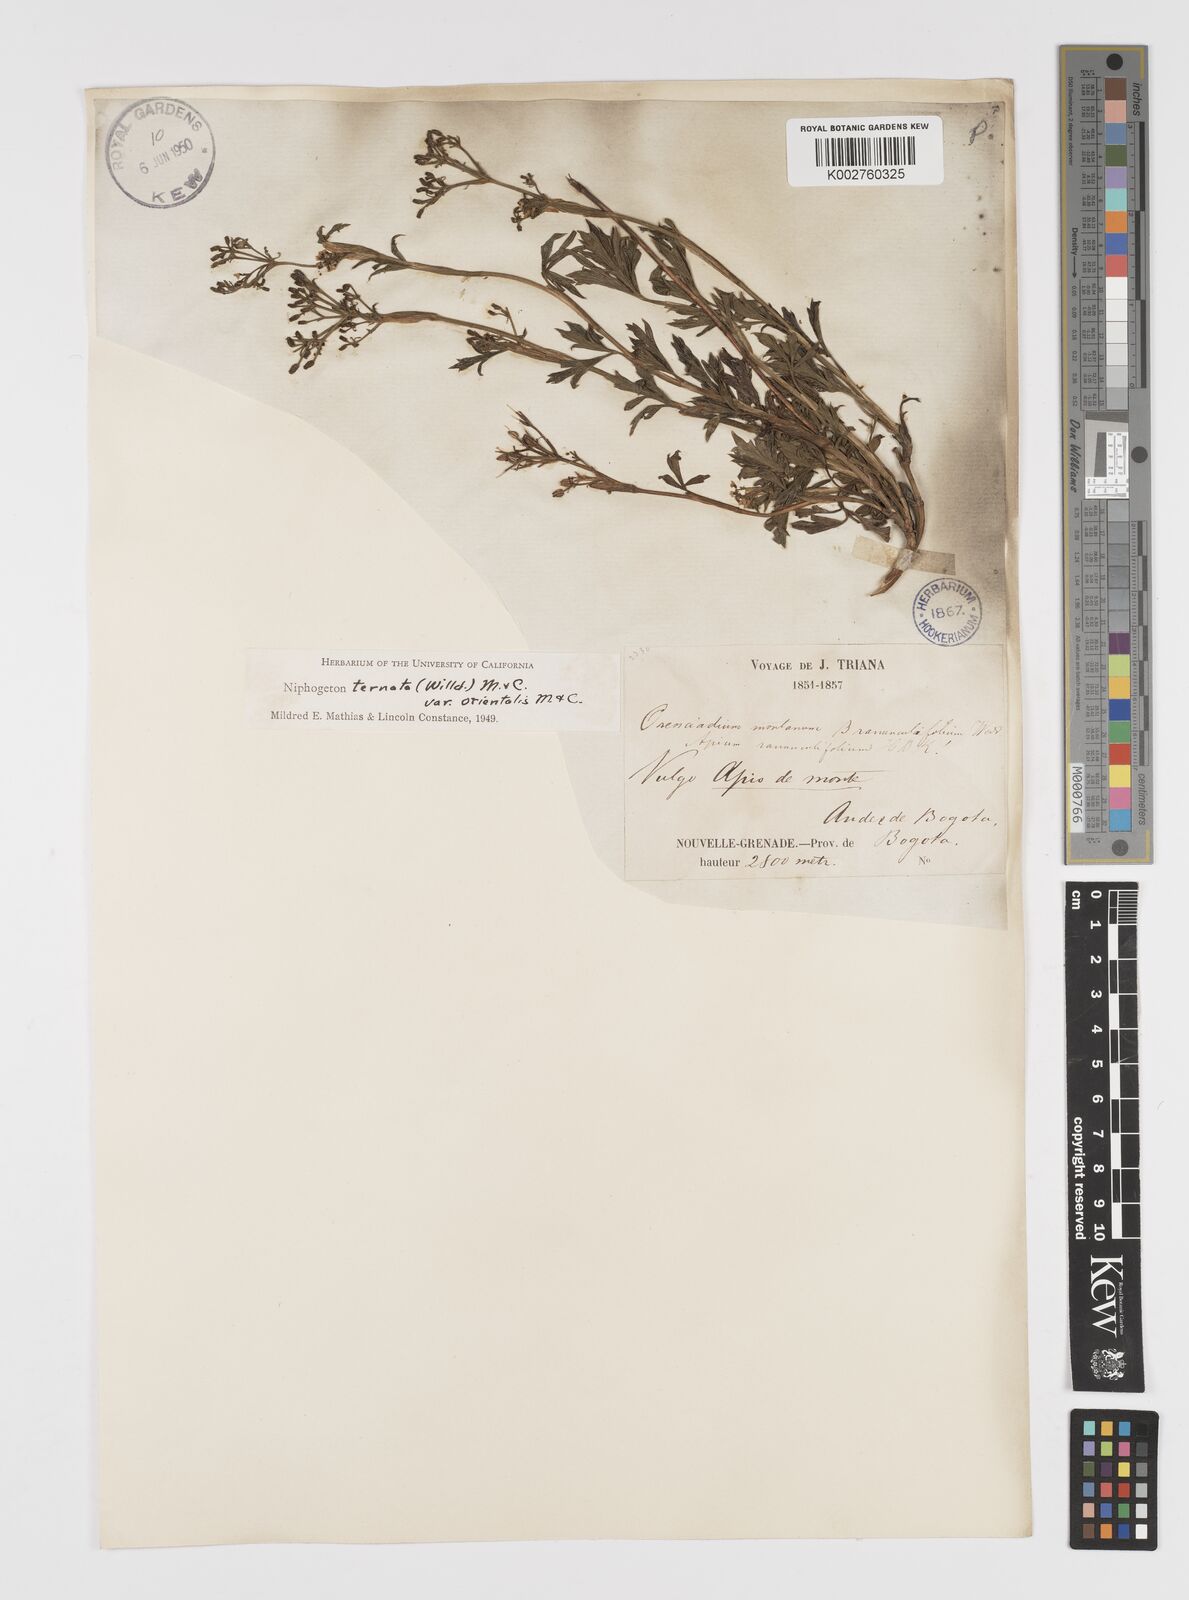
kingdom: Plantae
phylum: Tracheophyta
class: Magnoliopsida
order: Apiales
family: Apiaceae
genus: Niphogeton
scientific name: Niphogeton ternata
